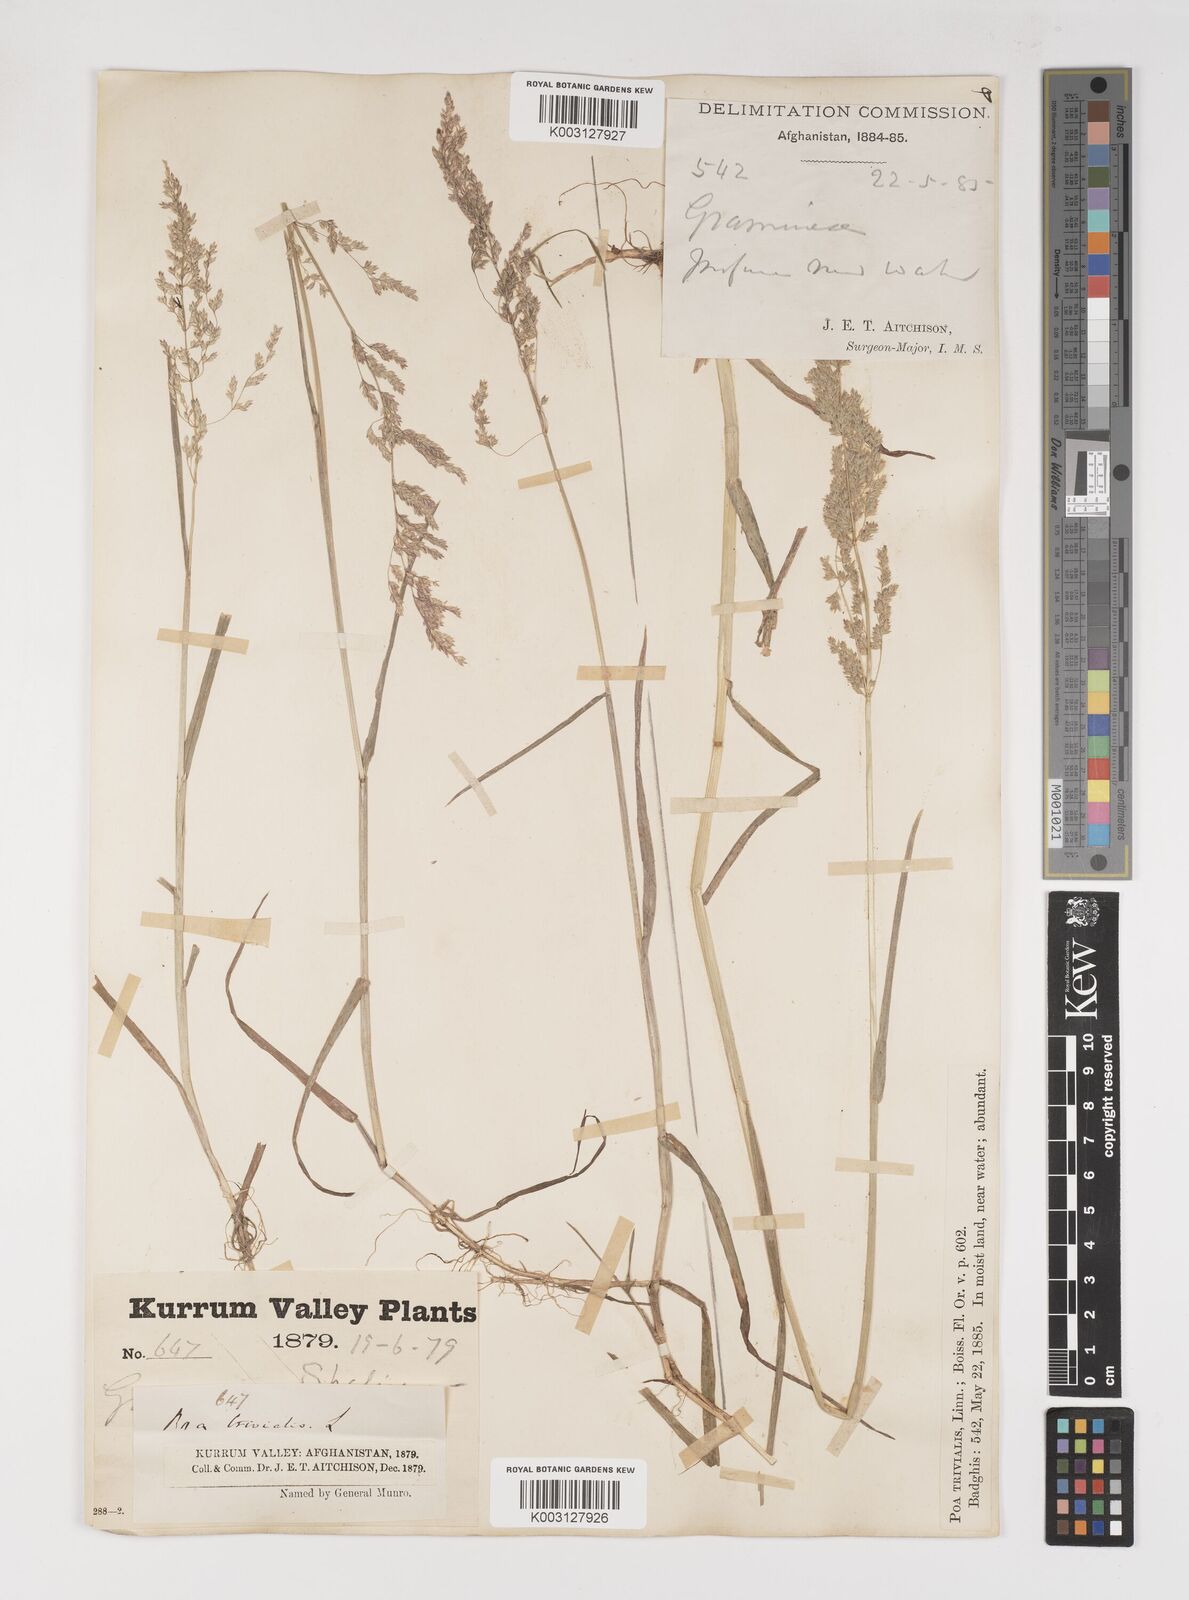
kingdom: Plantae
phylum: Tracheophyta
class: Liliopsida
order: Poales
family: Poaceae
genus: Poa
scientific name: Poa trivialis
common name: Rough bluegrass
